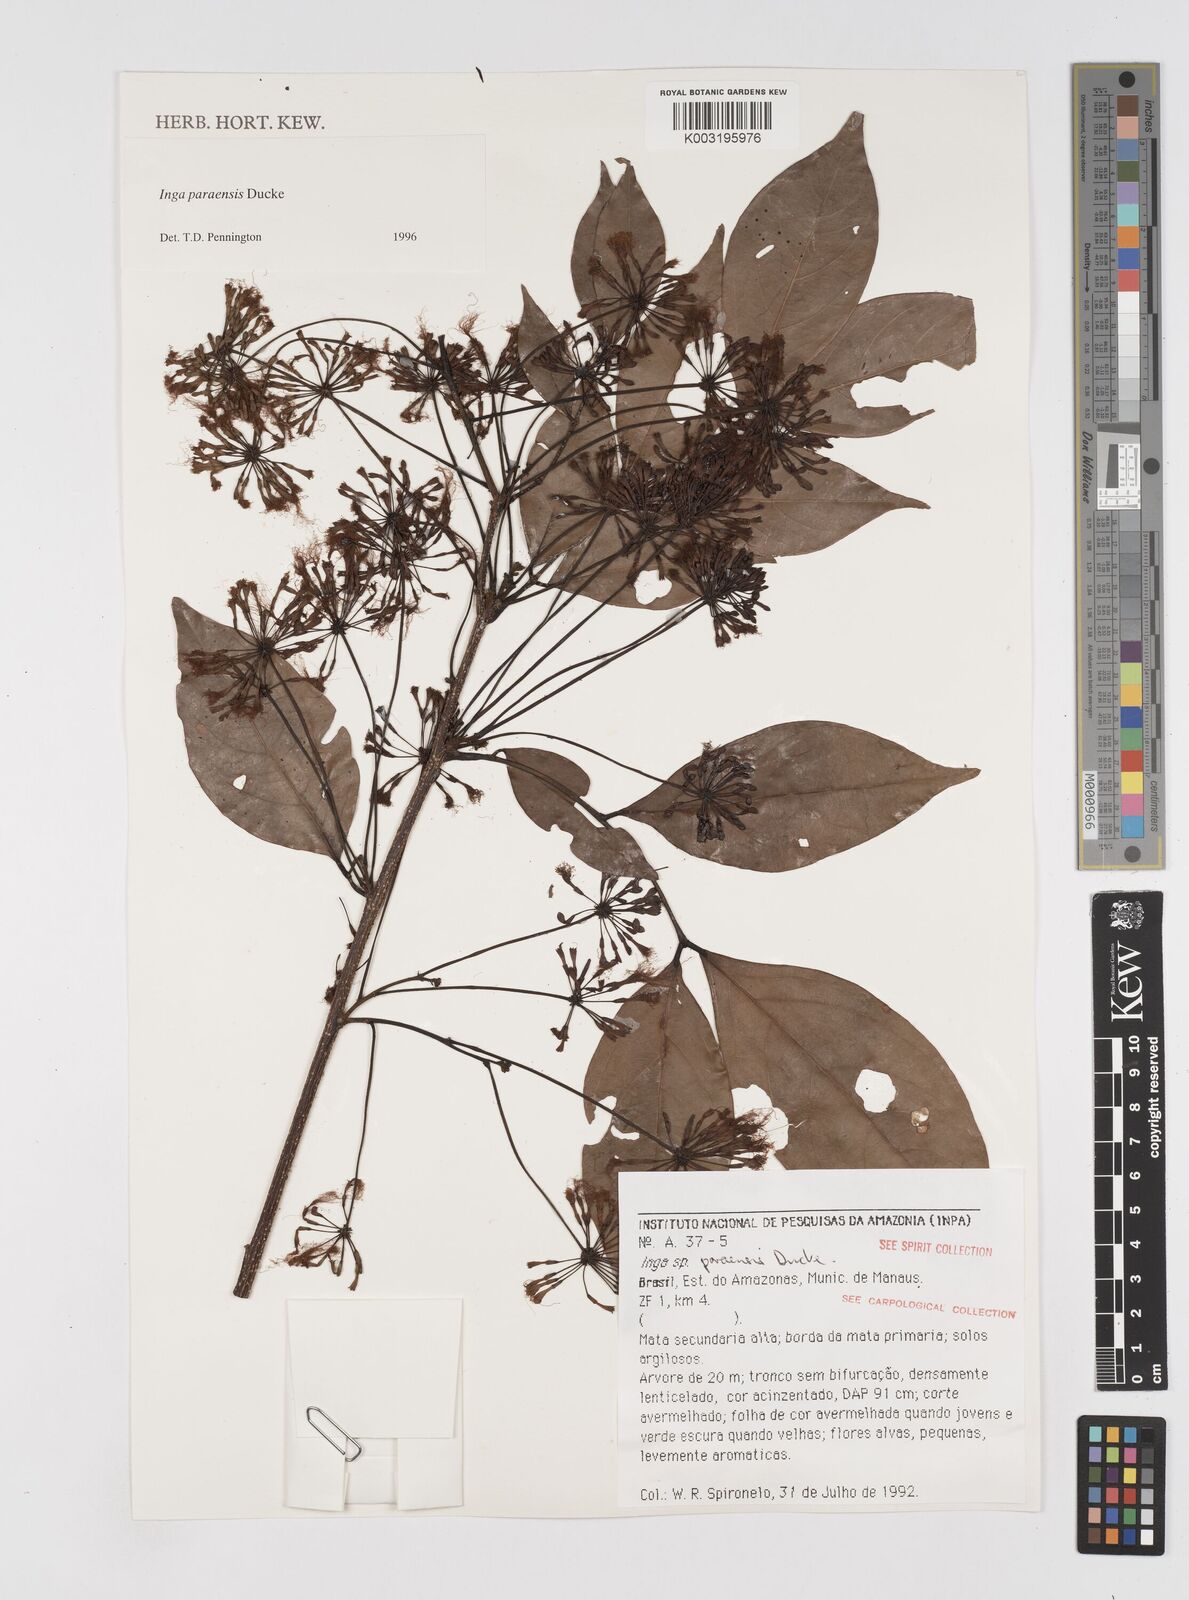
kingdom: Plantae
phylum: Tracheophyta
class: Magnoliopsida
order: Fabales
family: Fabaceae
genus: Inga
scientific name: Inga paraensis
